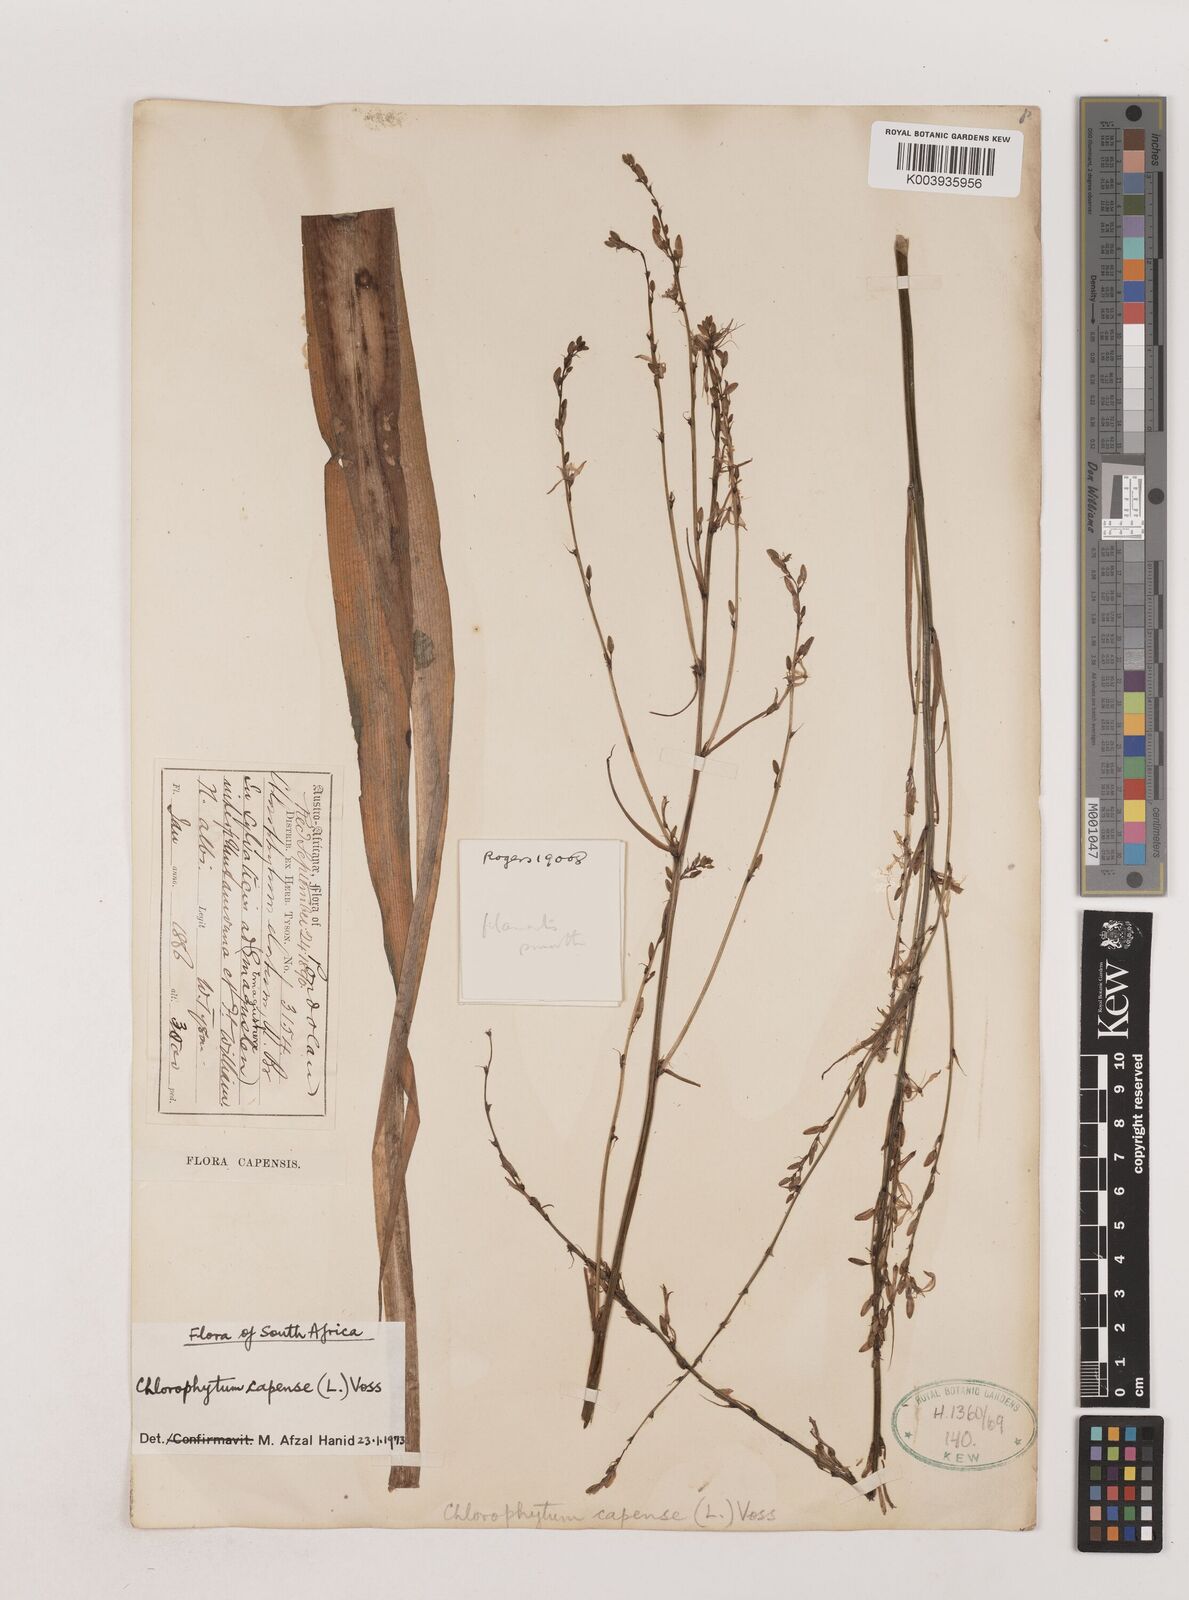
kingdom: Plantae
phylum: Tracheophyta
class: Liliopsida
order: Asparagales
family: Asparagaceae
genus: Chlorophytum
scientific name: Chlorophytum capense
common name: Bracketplant
